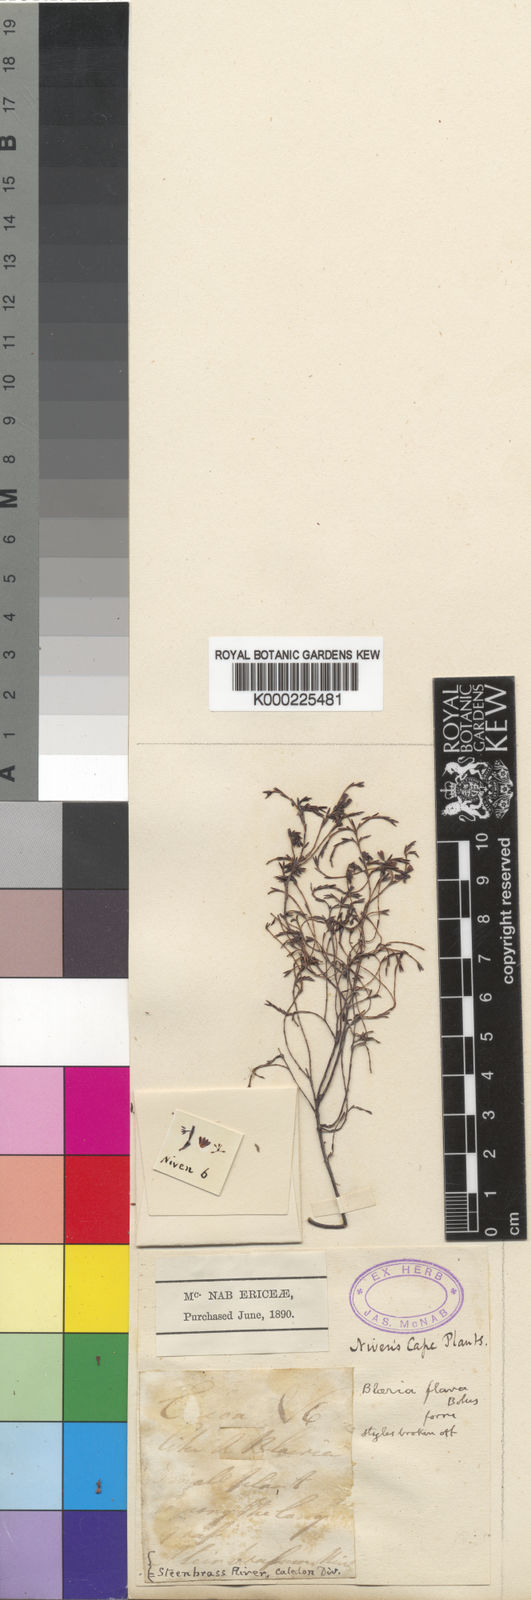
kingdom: Plantae
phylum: Tracheophyta
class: Magnoliopsida
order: Ericales
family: Ericaceae
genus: Erica
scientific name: Erica multiflexuosa
